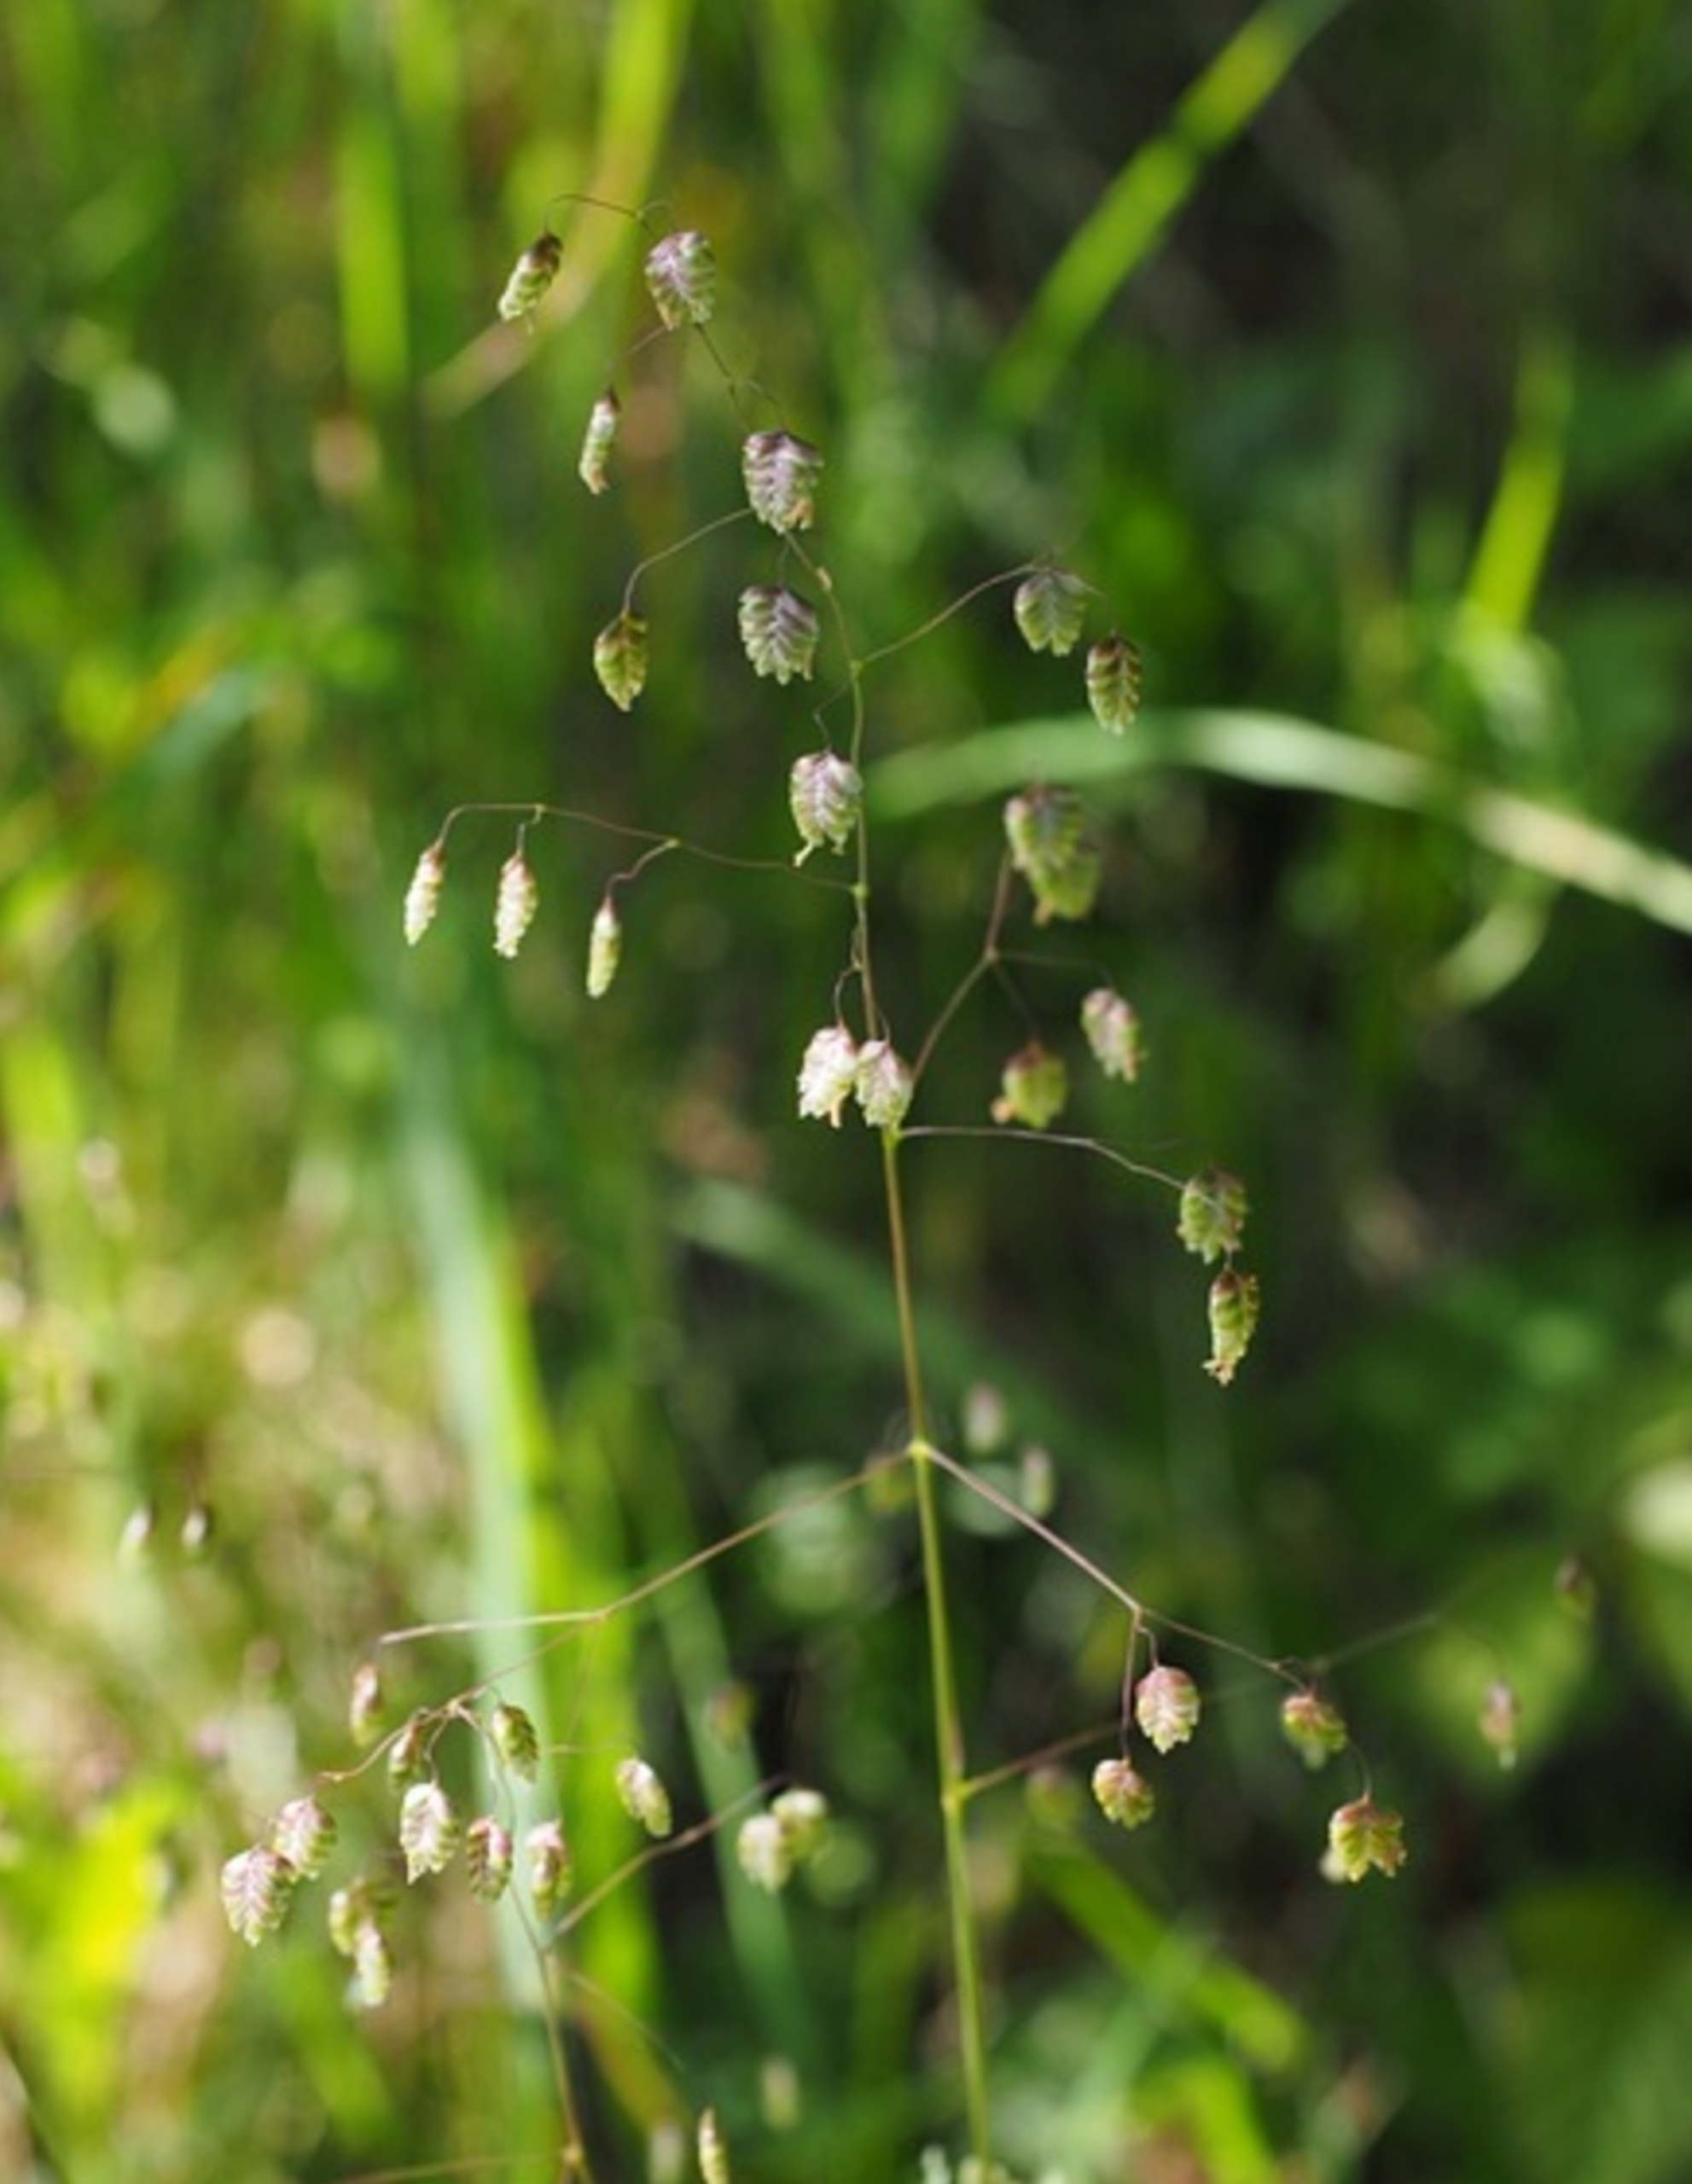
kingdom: Plantae
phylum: Tracheophyta
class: Liliopsida
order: Poales
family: Poaceae
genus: Briza
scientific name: Briza media
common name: Hjertegræs
